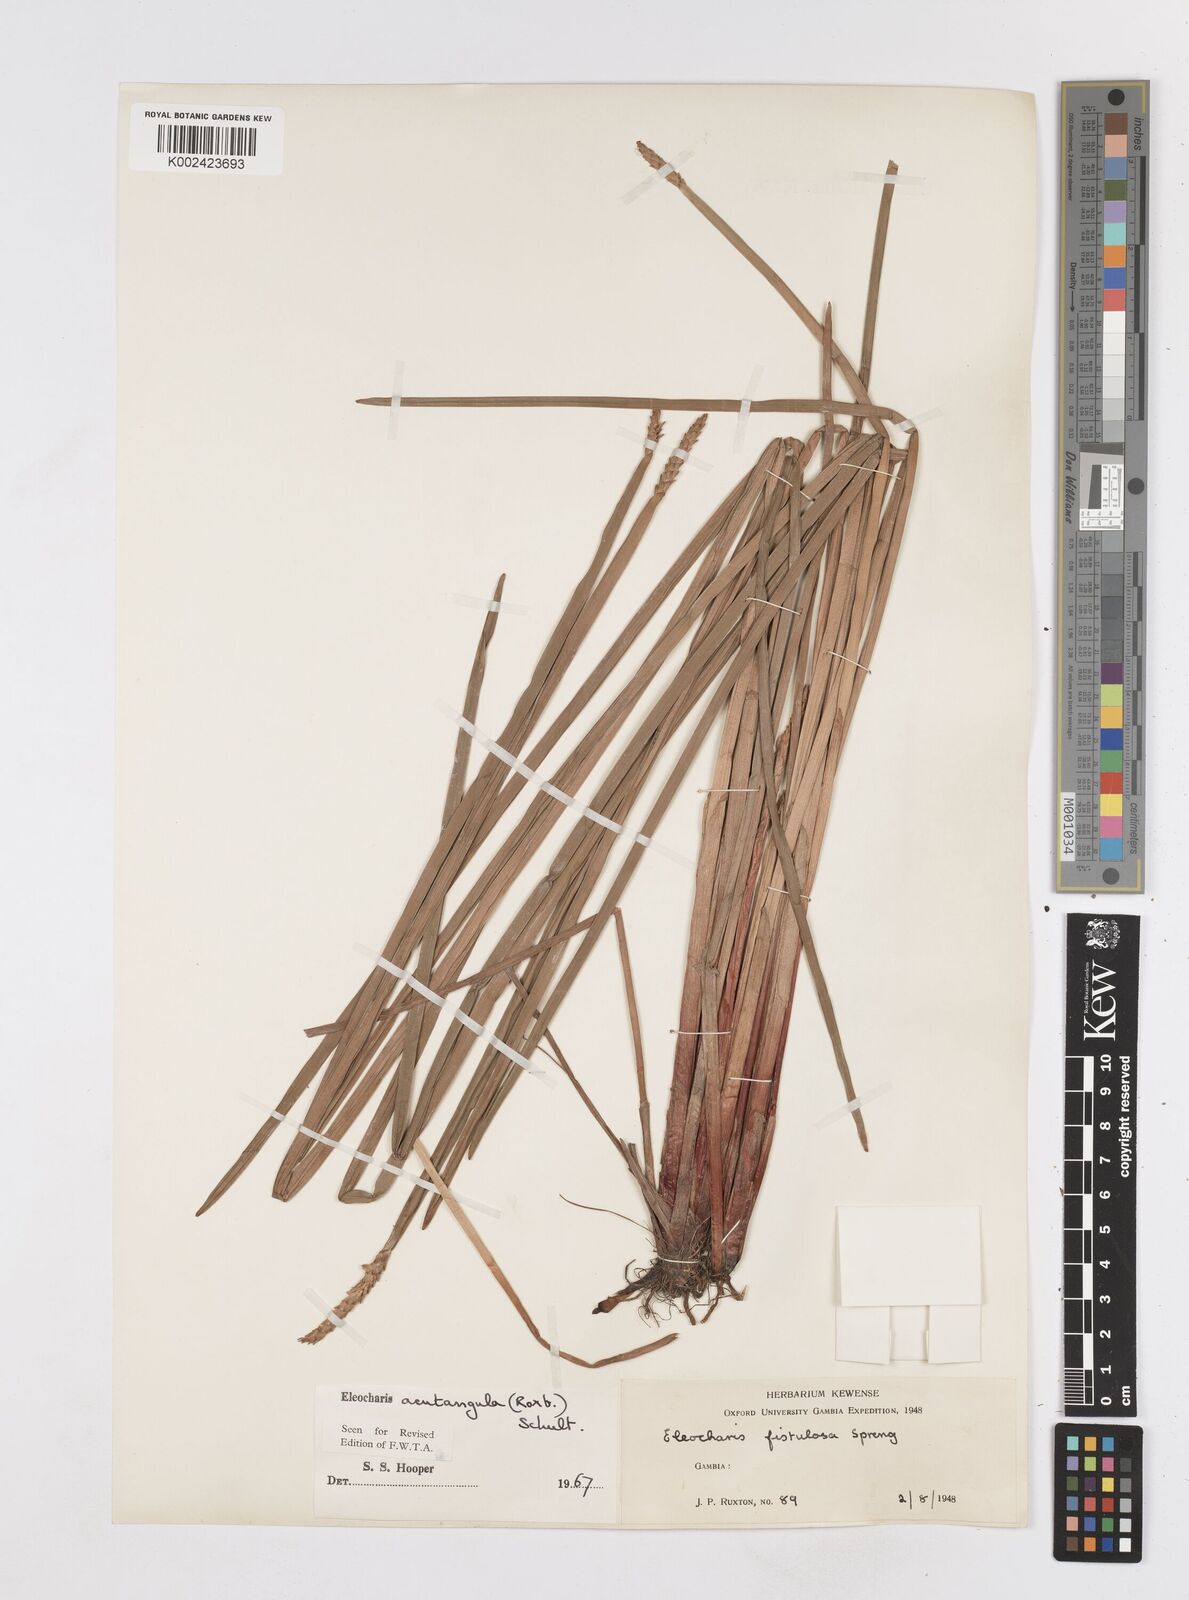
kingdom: Plantae
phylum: Tracheophyta
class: Liliopsida
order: Poales
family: Cyperaceae
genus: Eleocharis
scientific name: Eleocharis acutangula
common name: Acute spikerush
